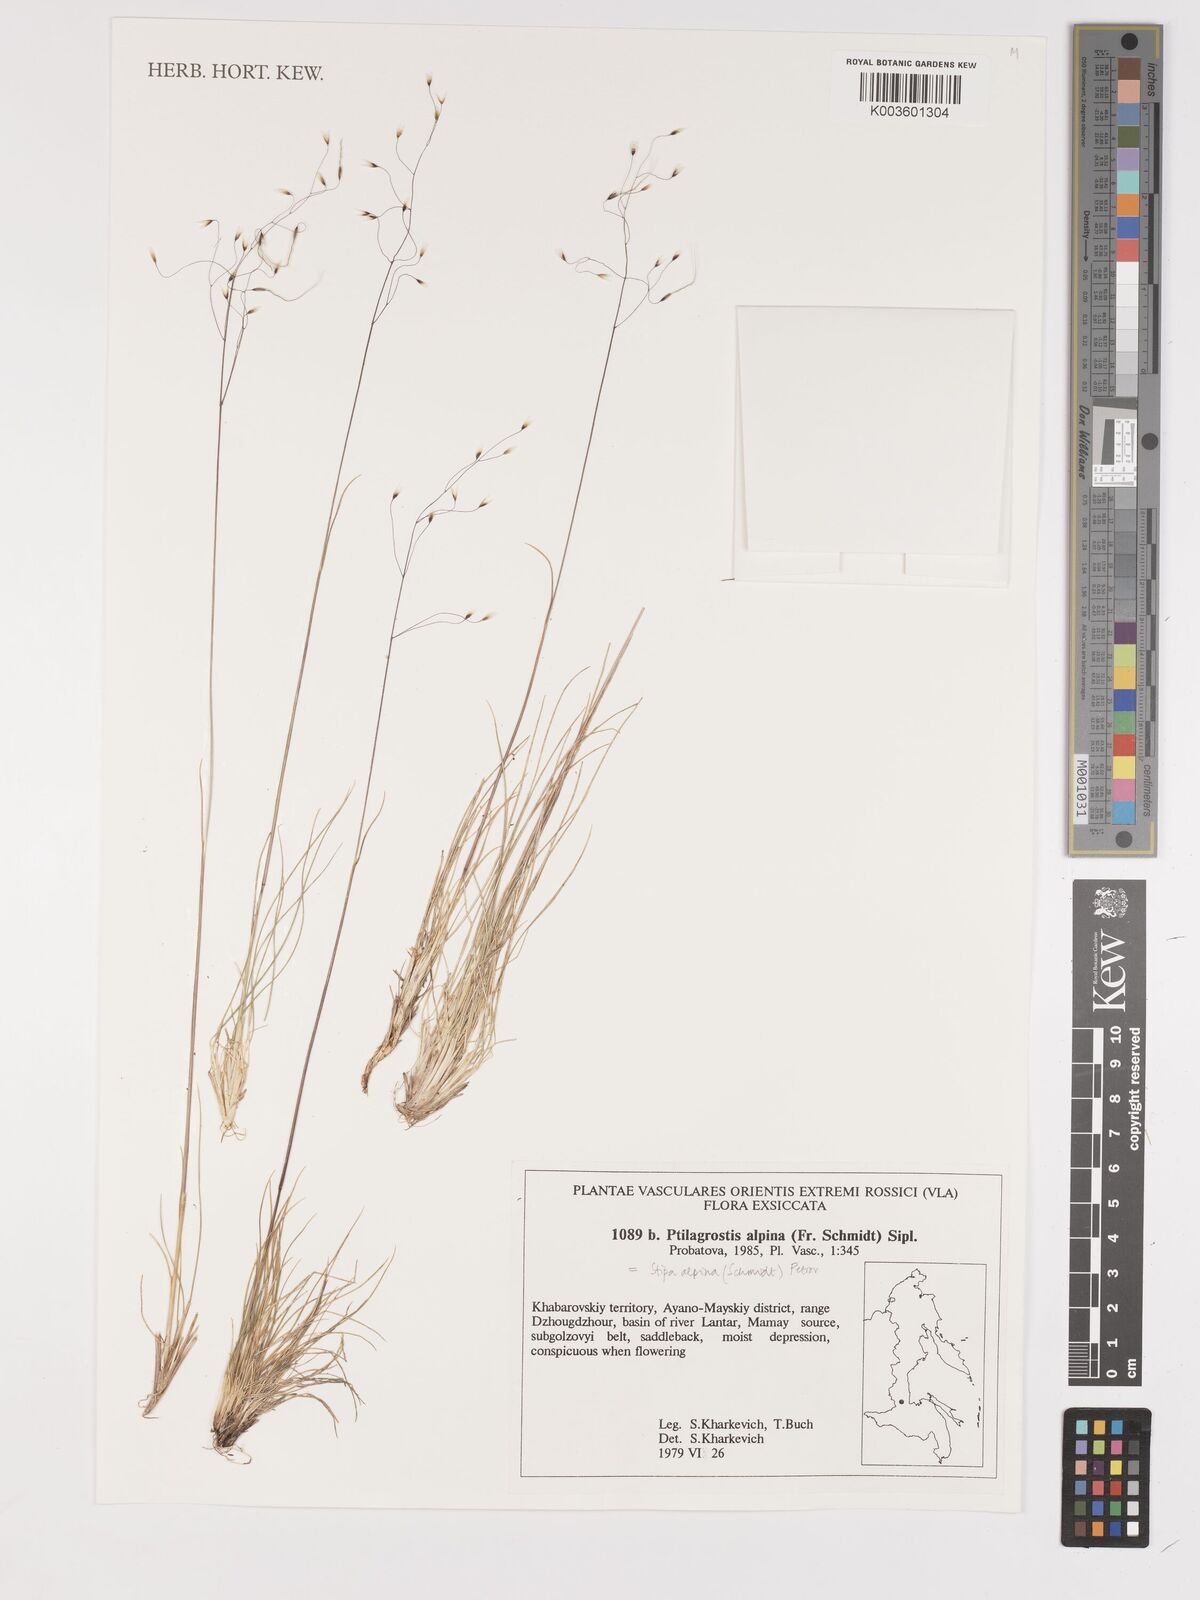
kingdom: Plantae
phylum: Tracheophyta
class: Liliopsida
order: Poales
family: Poaceae
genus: Ptilagrostis
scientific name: Ptilagrostis alpina
